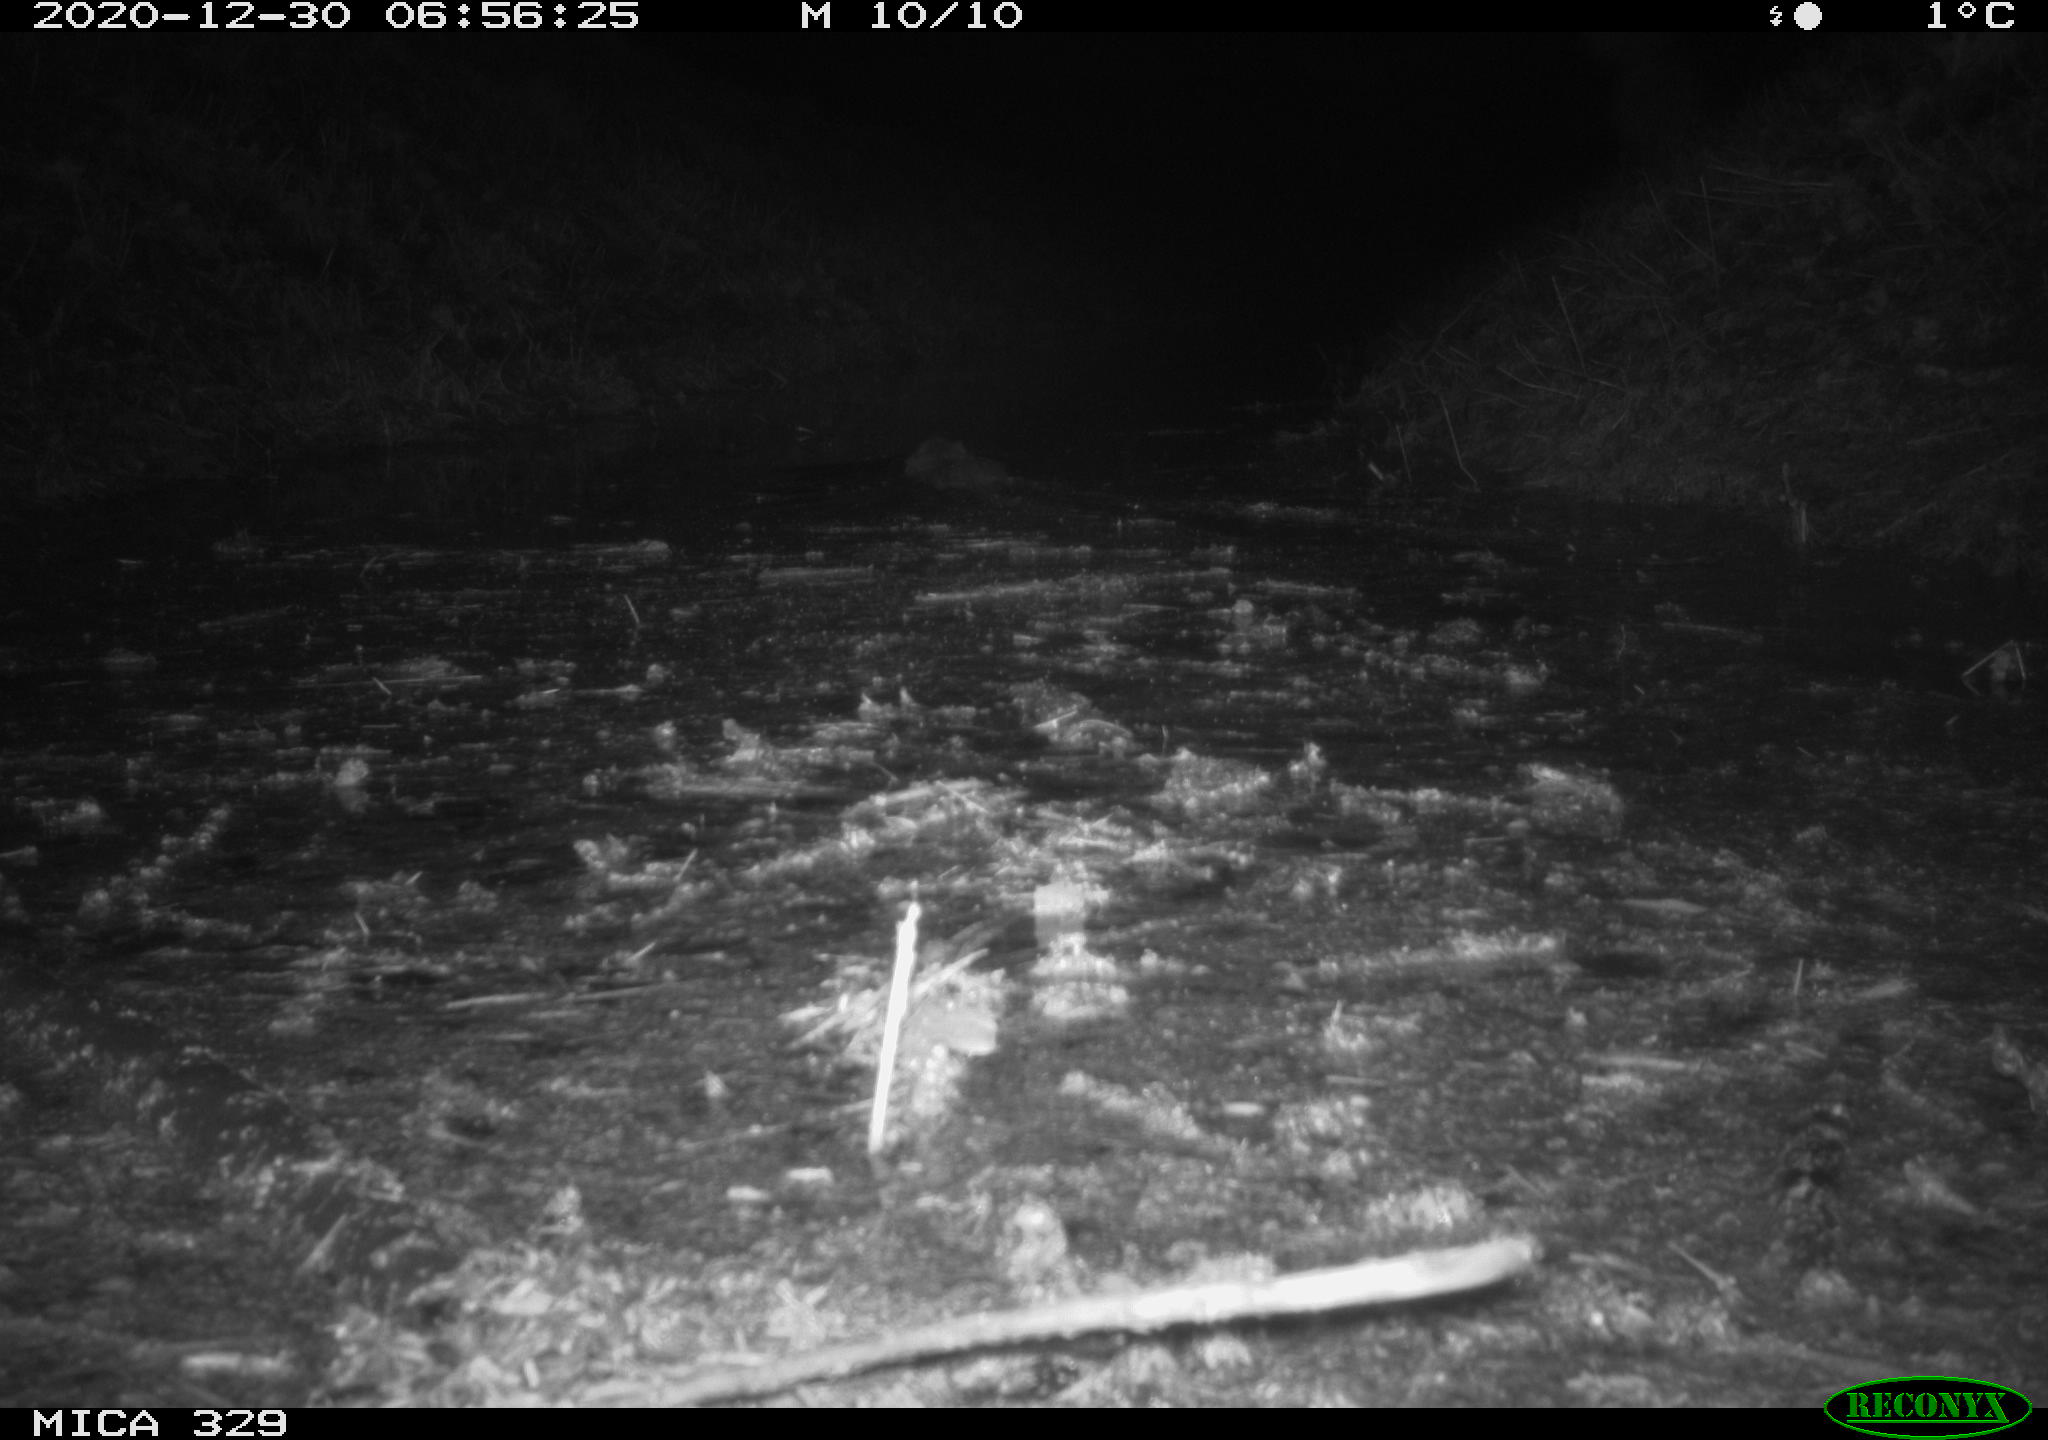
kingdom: Animalia
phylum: Chordata
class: Mammalia
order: Rodentia
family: Myocastoridae
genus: Myocastor
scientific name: Myocastor coypus
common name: Coypu
